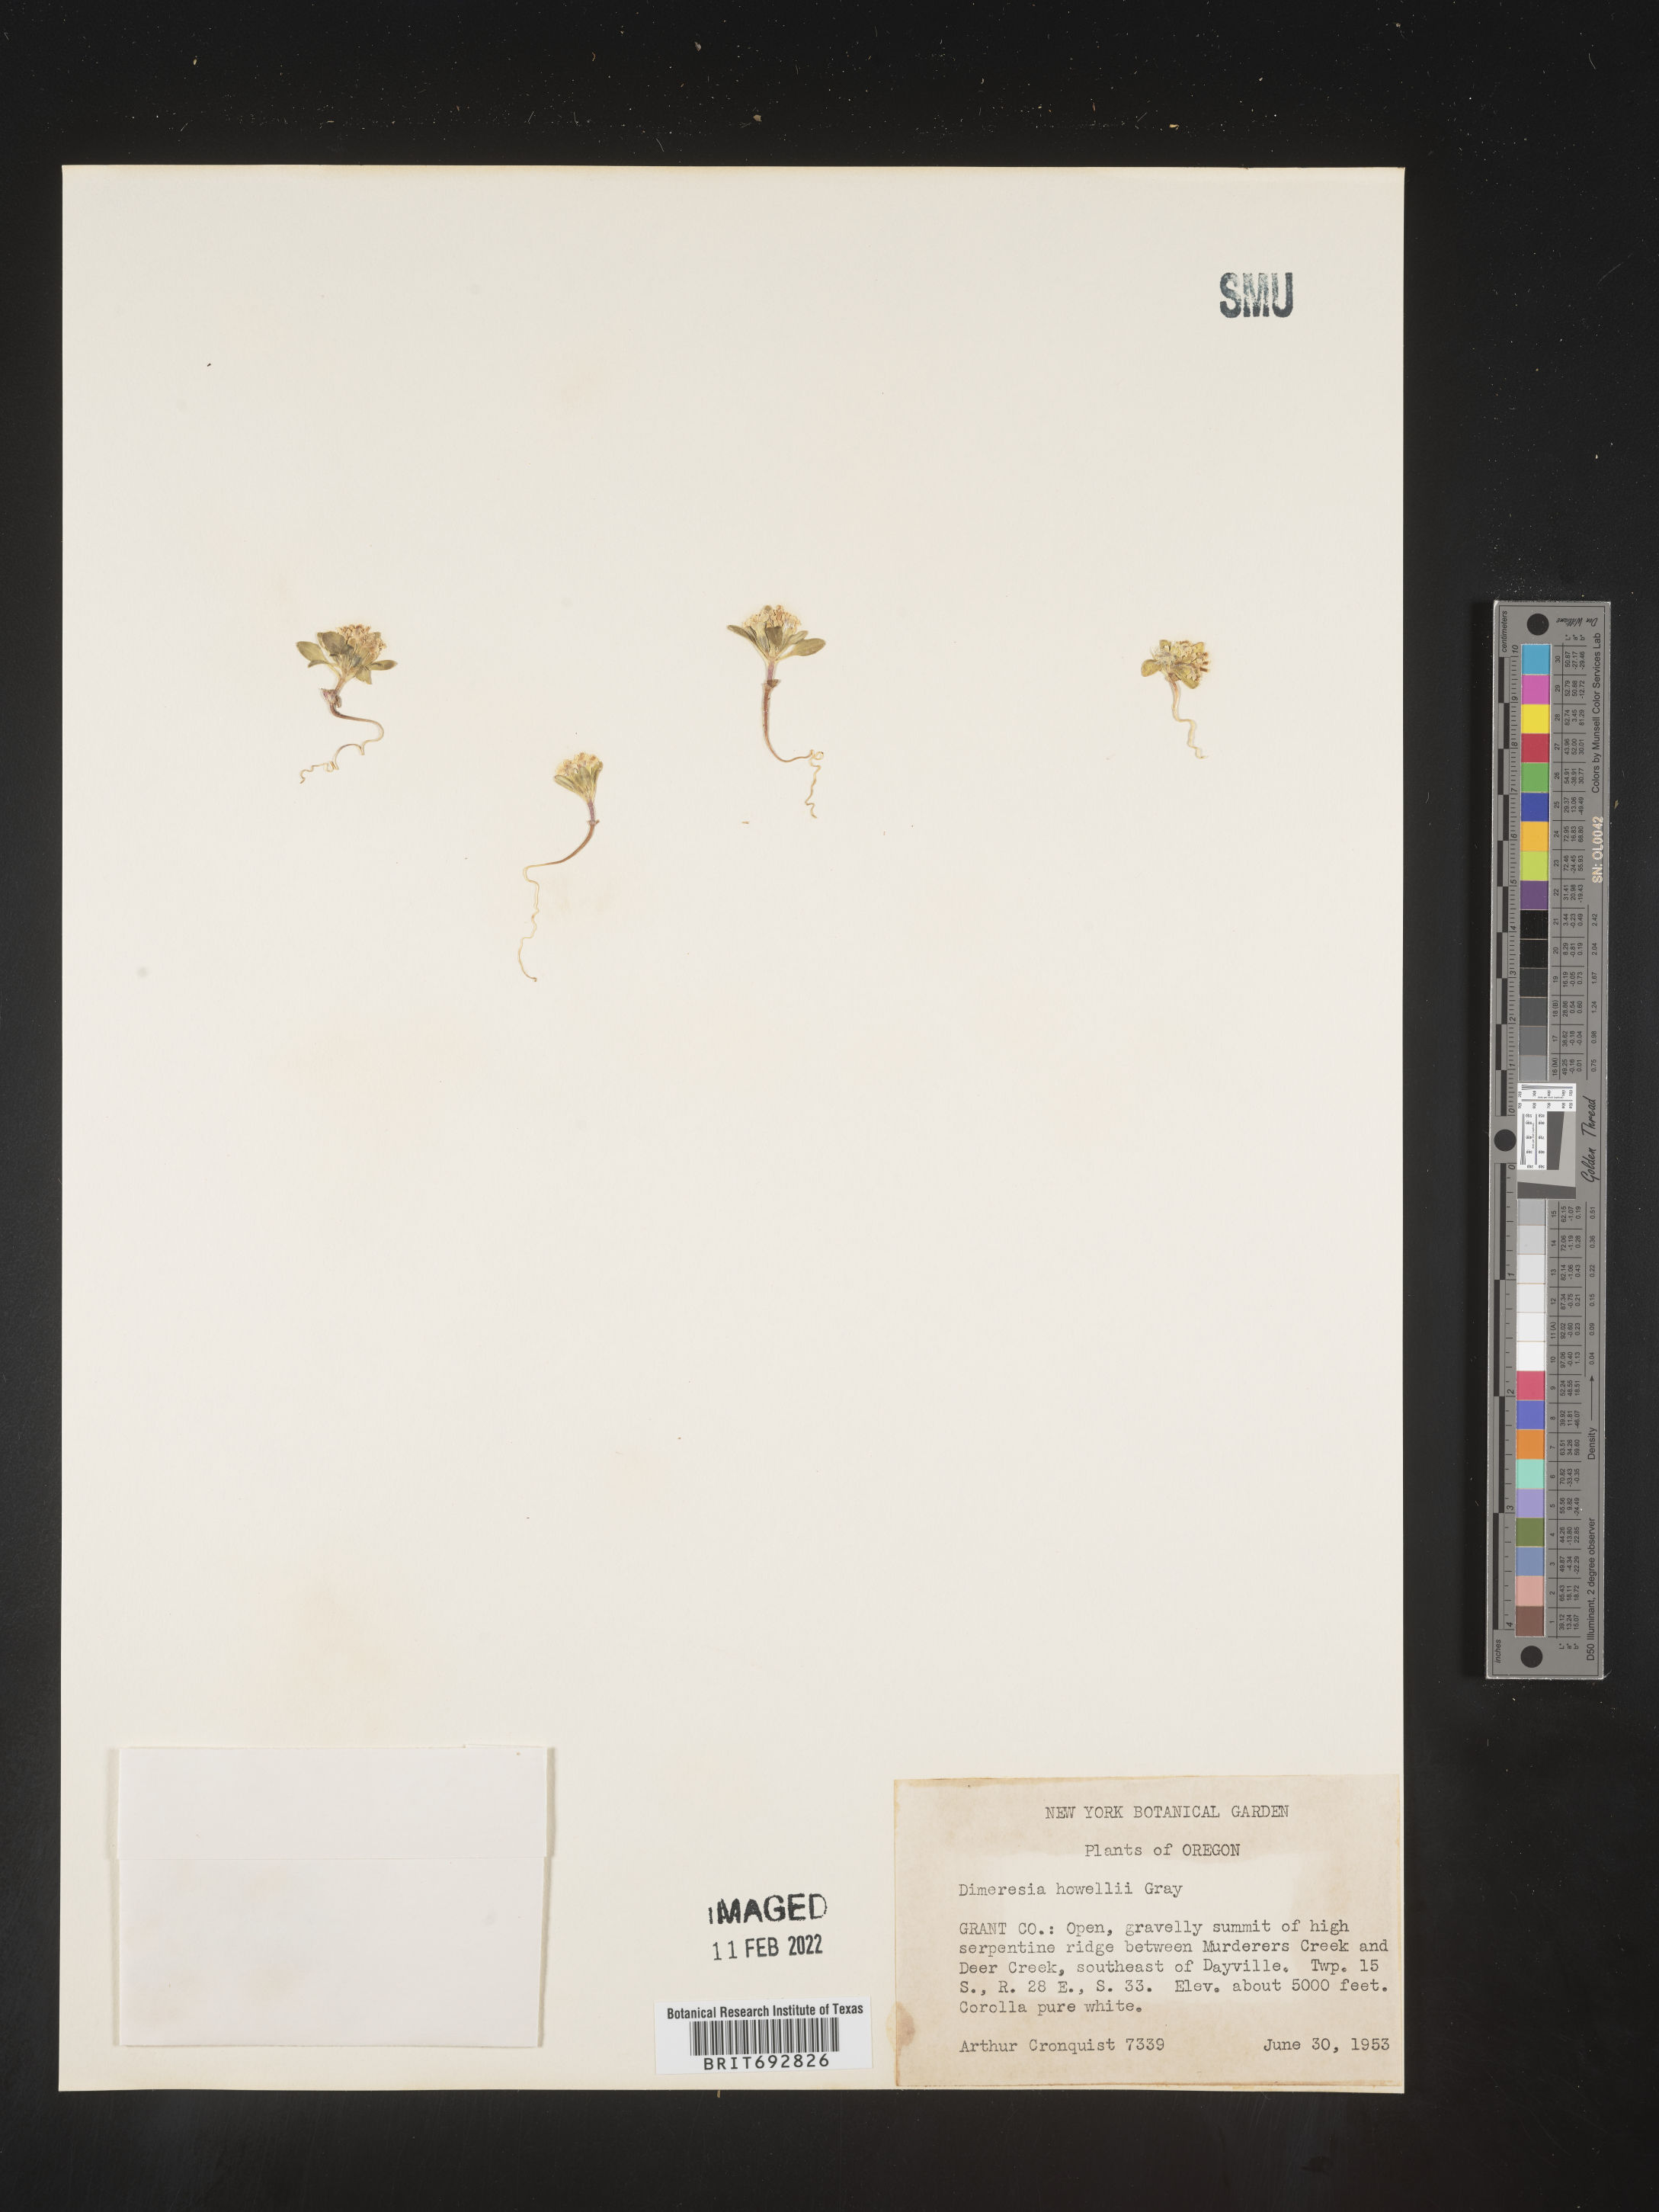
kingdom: Plantae
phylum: Tracheophyta
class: Magnoliopsida
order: Asterales
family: Asteraceae
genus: Dimeresia
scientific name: Dimeresia
